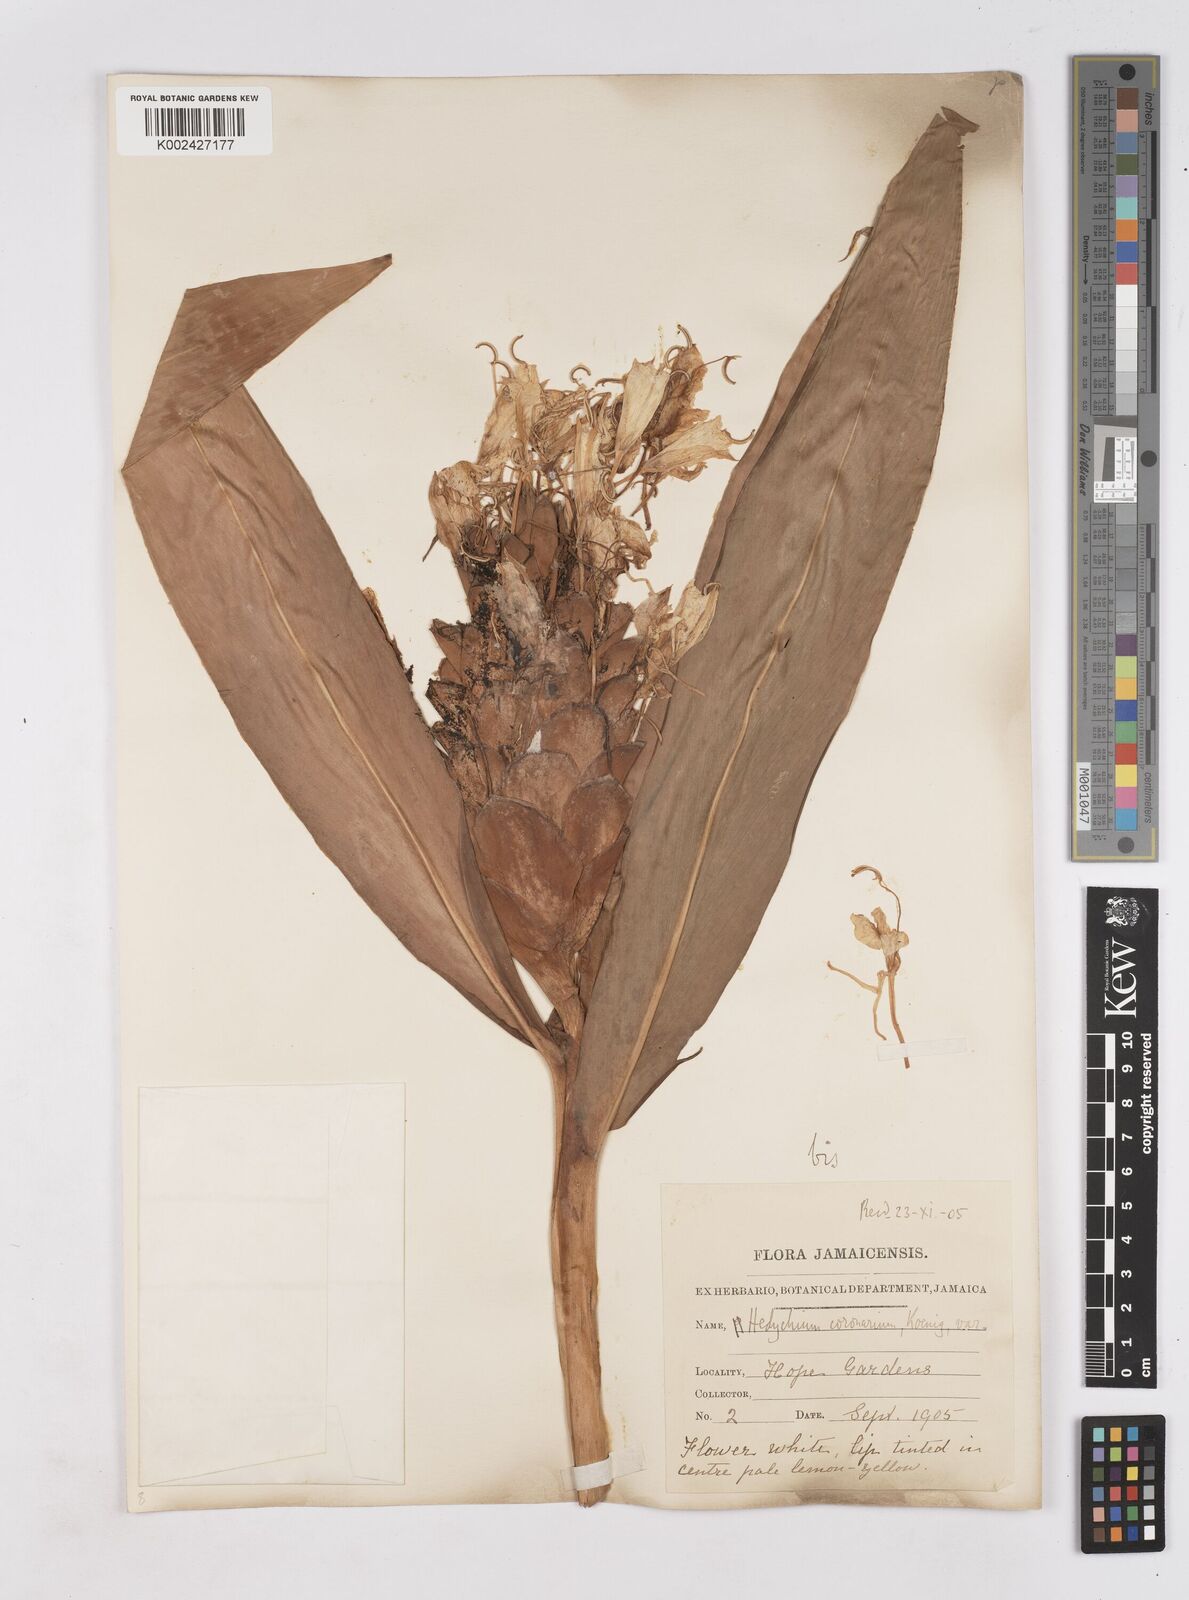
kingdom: Plantae
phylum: Tracheophyta
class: Liliopsida
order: Zingiberales
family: Zingiberaceae
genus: Hedychium
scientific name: Hedychium coronarium
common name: White garland-lily
